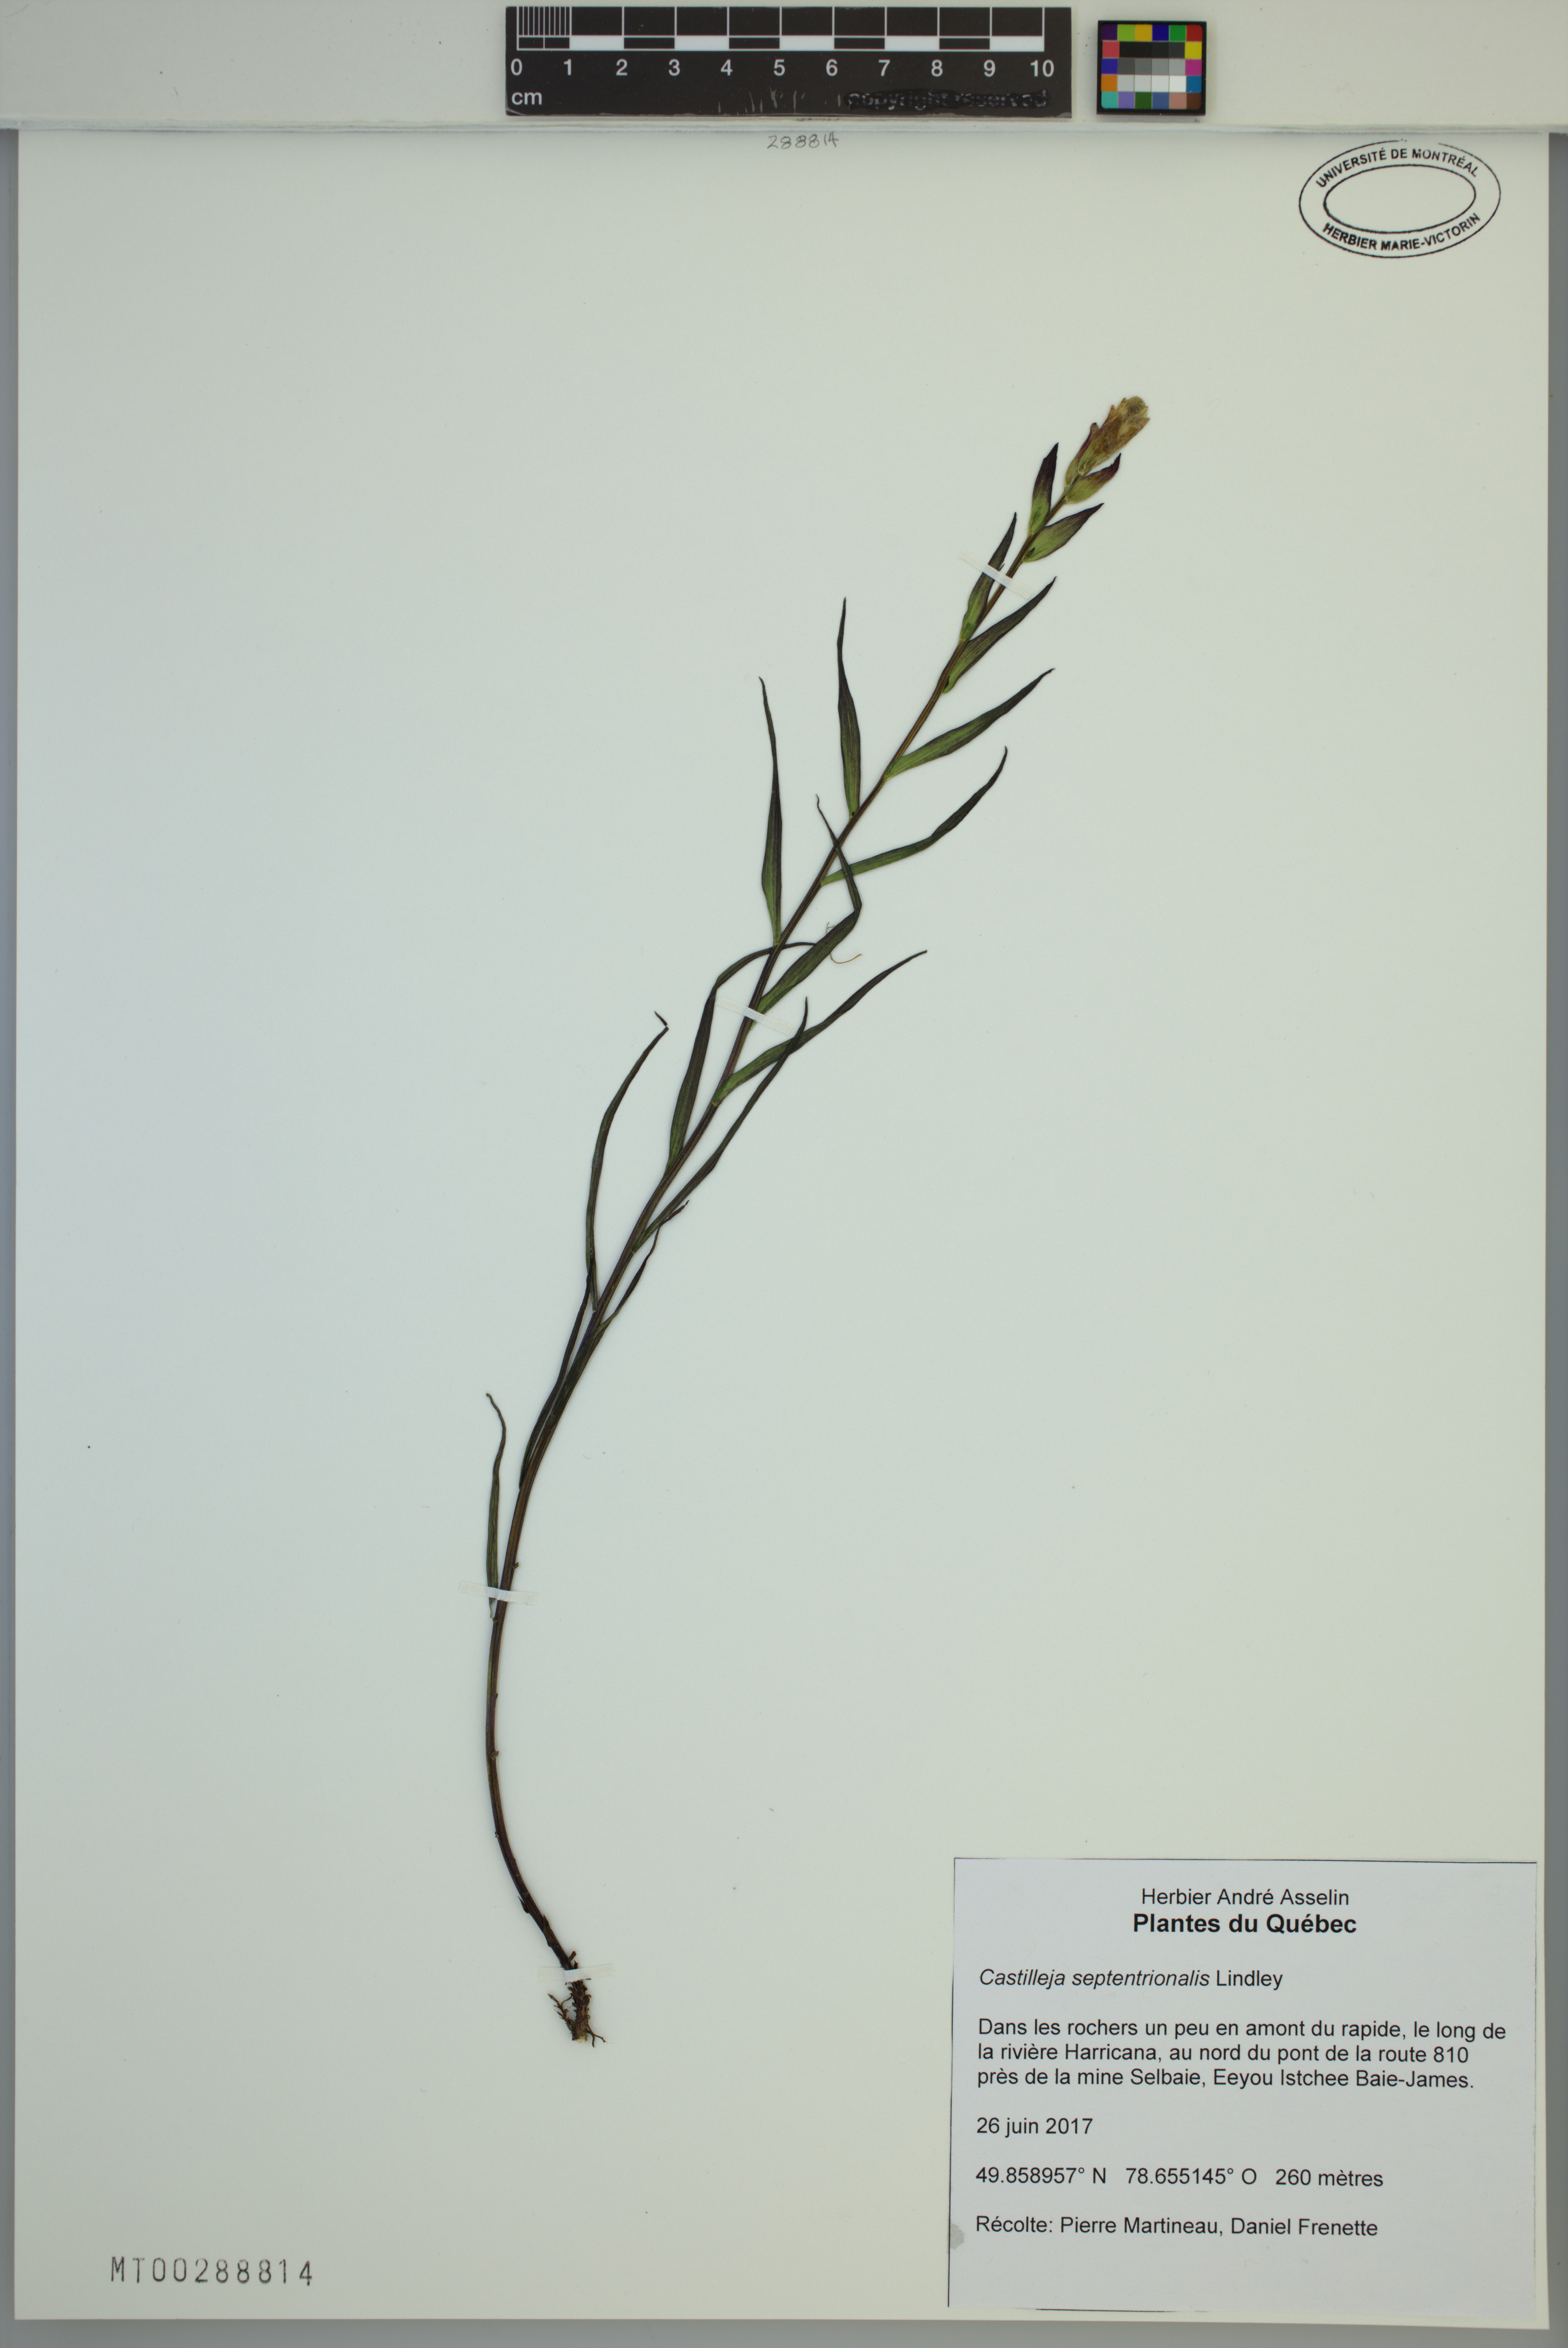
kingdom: Plantae
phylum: Tracheophyta
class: Magnoliopsida
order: Lamiales
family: Orobanchaceae
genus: Castilleja
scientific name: Castilleja septentrionalis
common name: Northeastern paintbrush
